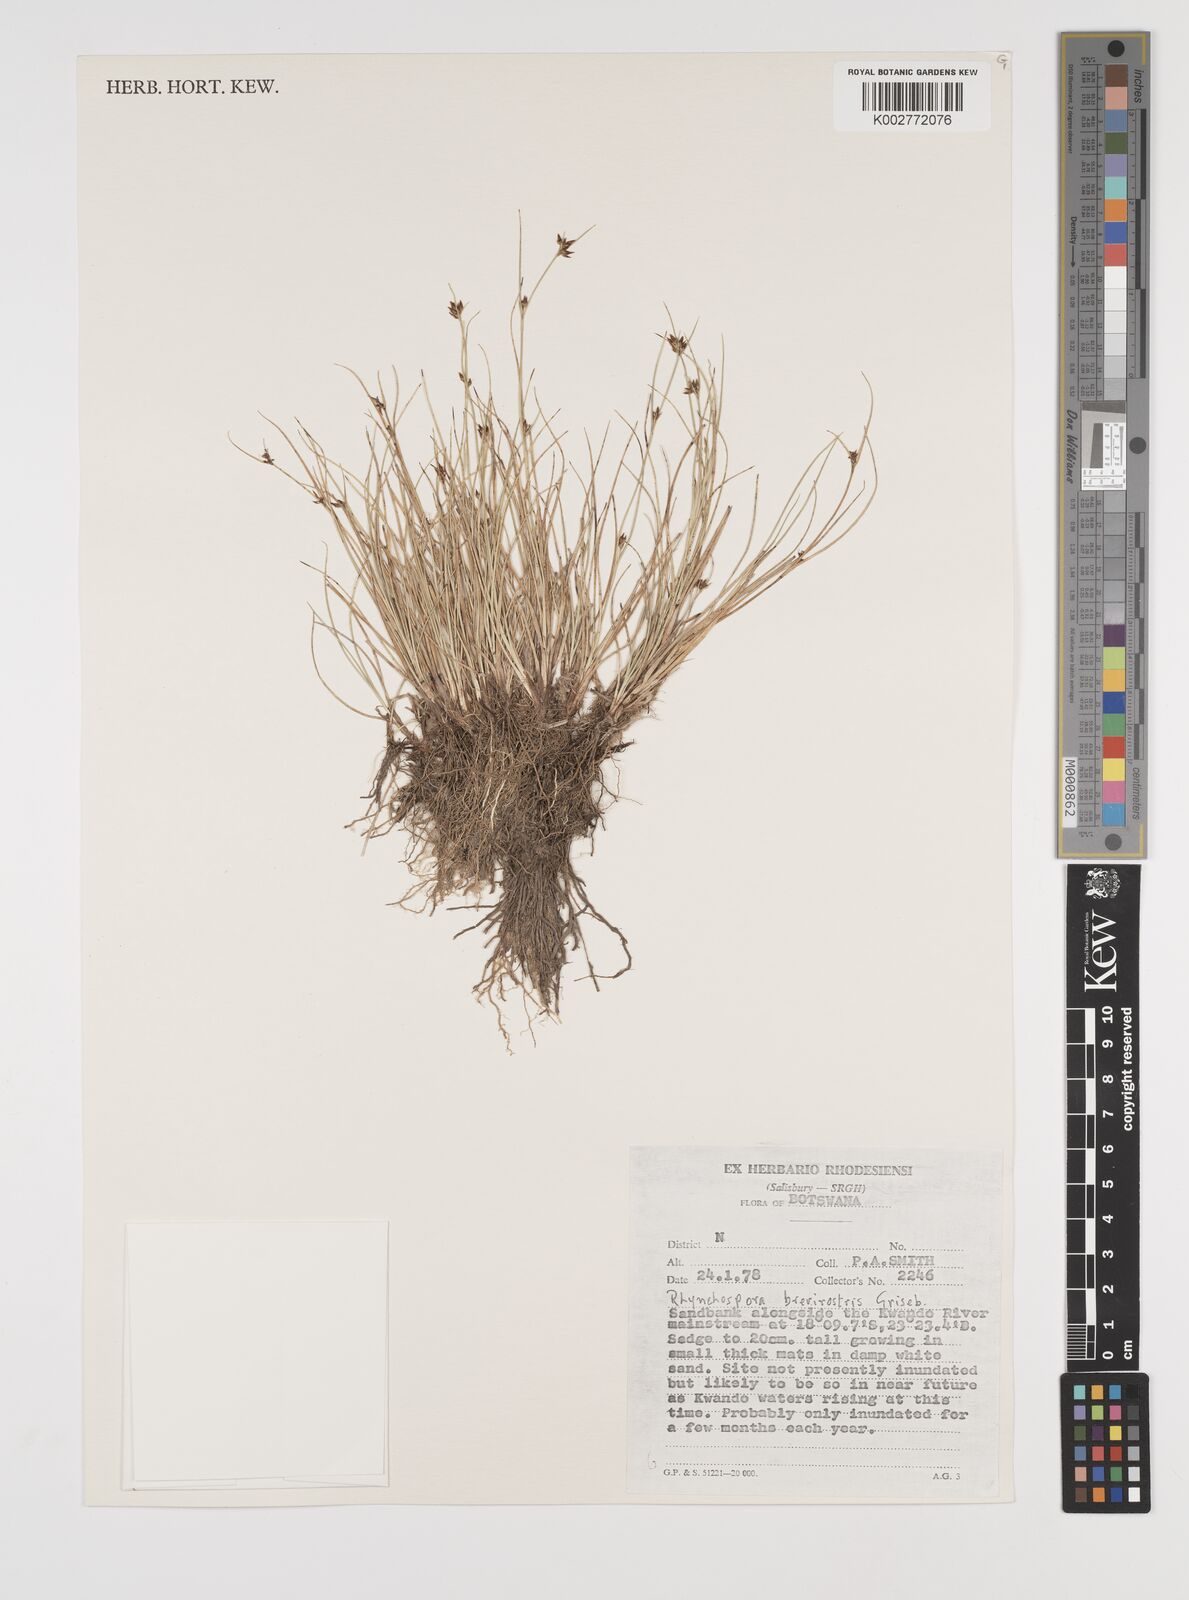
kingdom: Plantae
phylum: Tracheophyta
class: Liliopsida
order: Poales
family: Cyperaceae
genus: Rhynchospora
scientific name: Rhynchospora brevirostris
